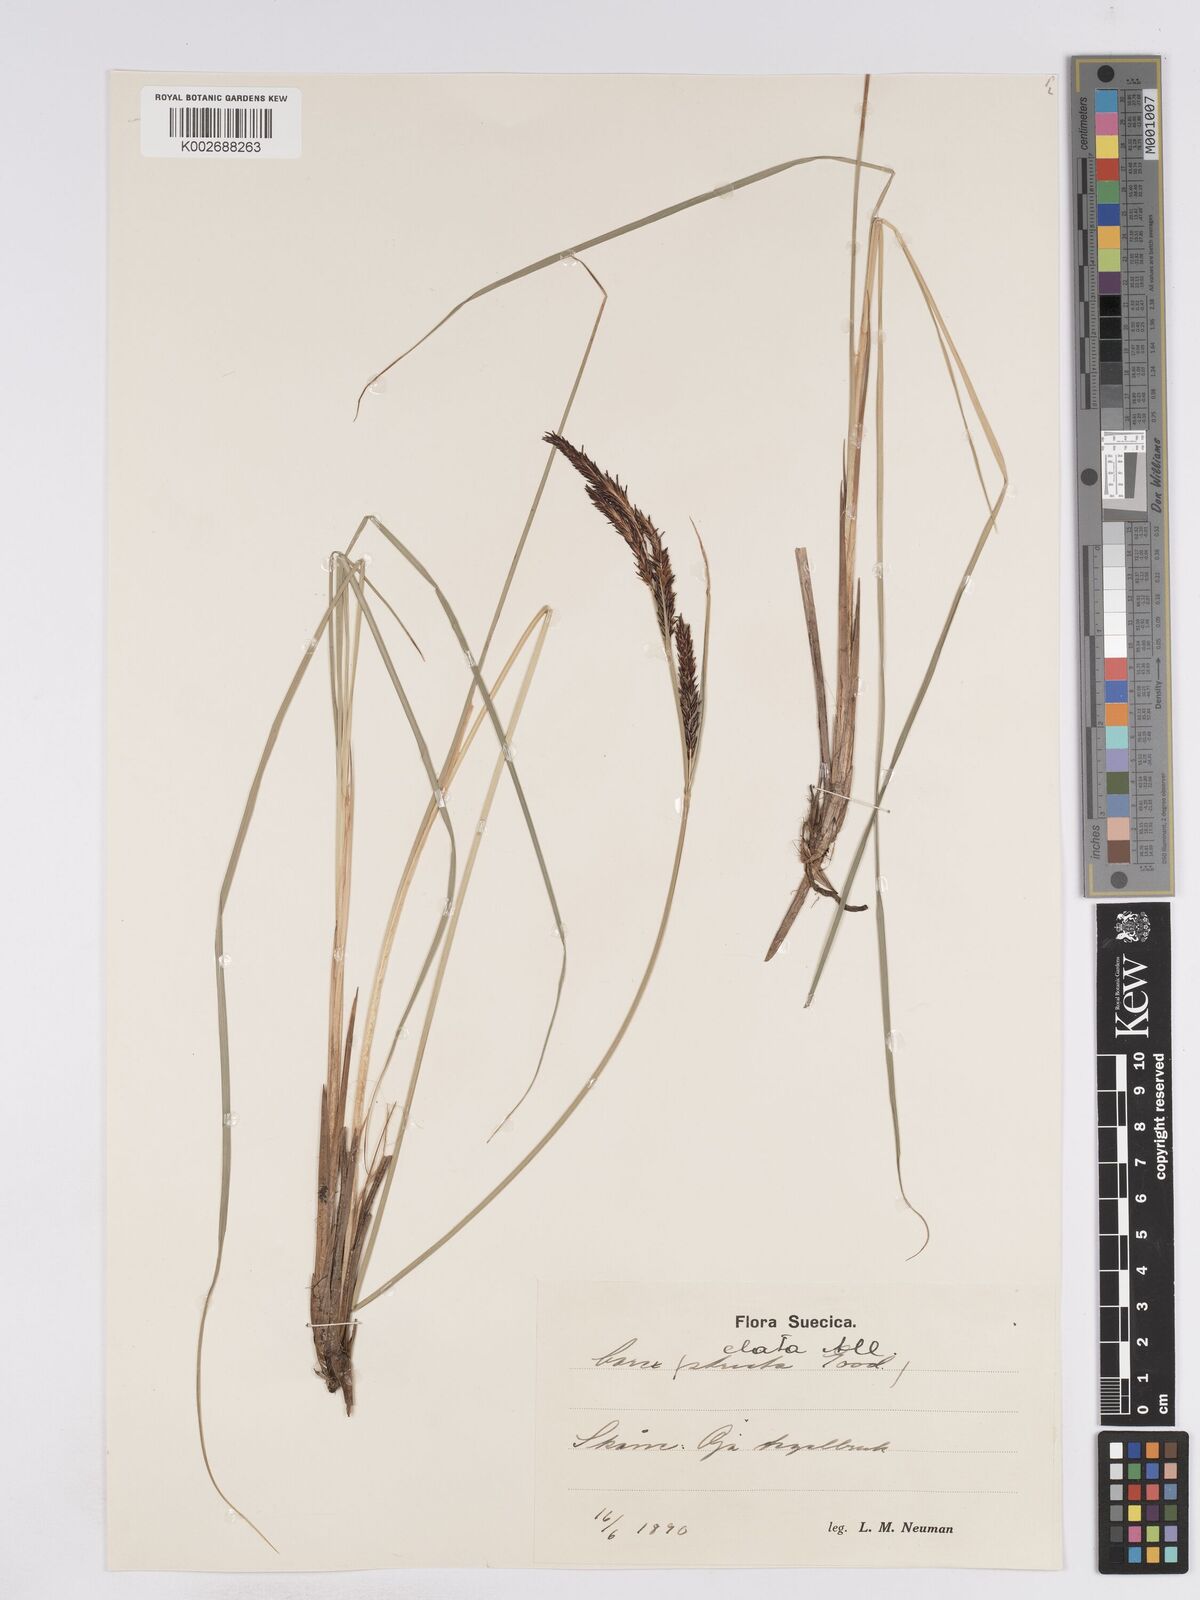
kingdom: Plantae
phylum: Tracheophyta
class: Liliopsida
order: Poales
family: Cyperaceae
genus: Carex
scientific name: Carex elata
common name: Tufted sedge
